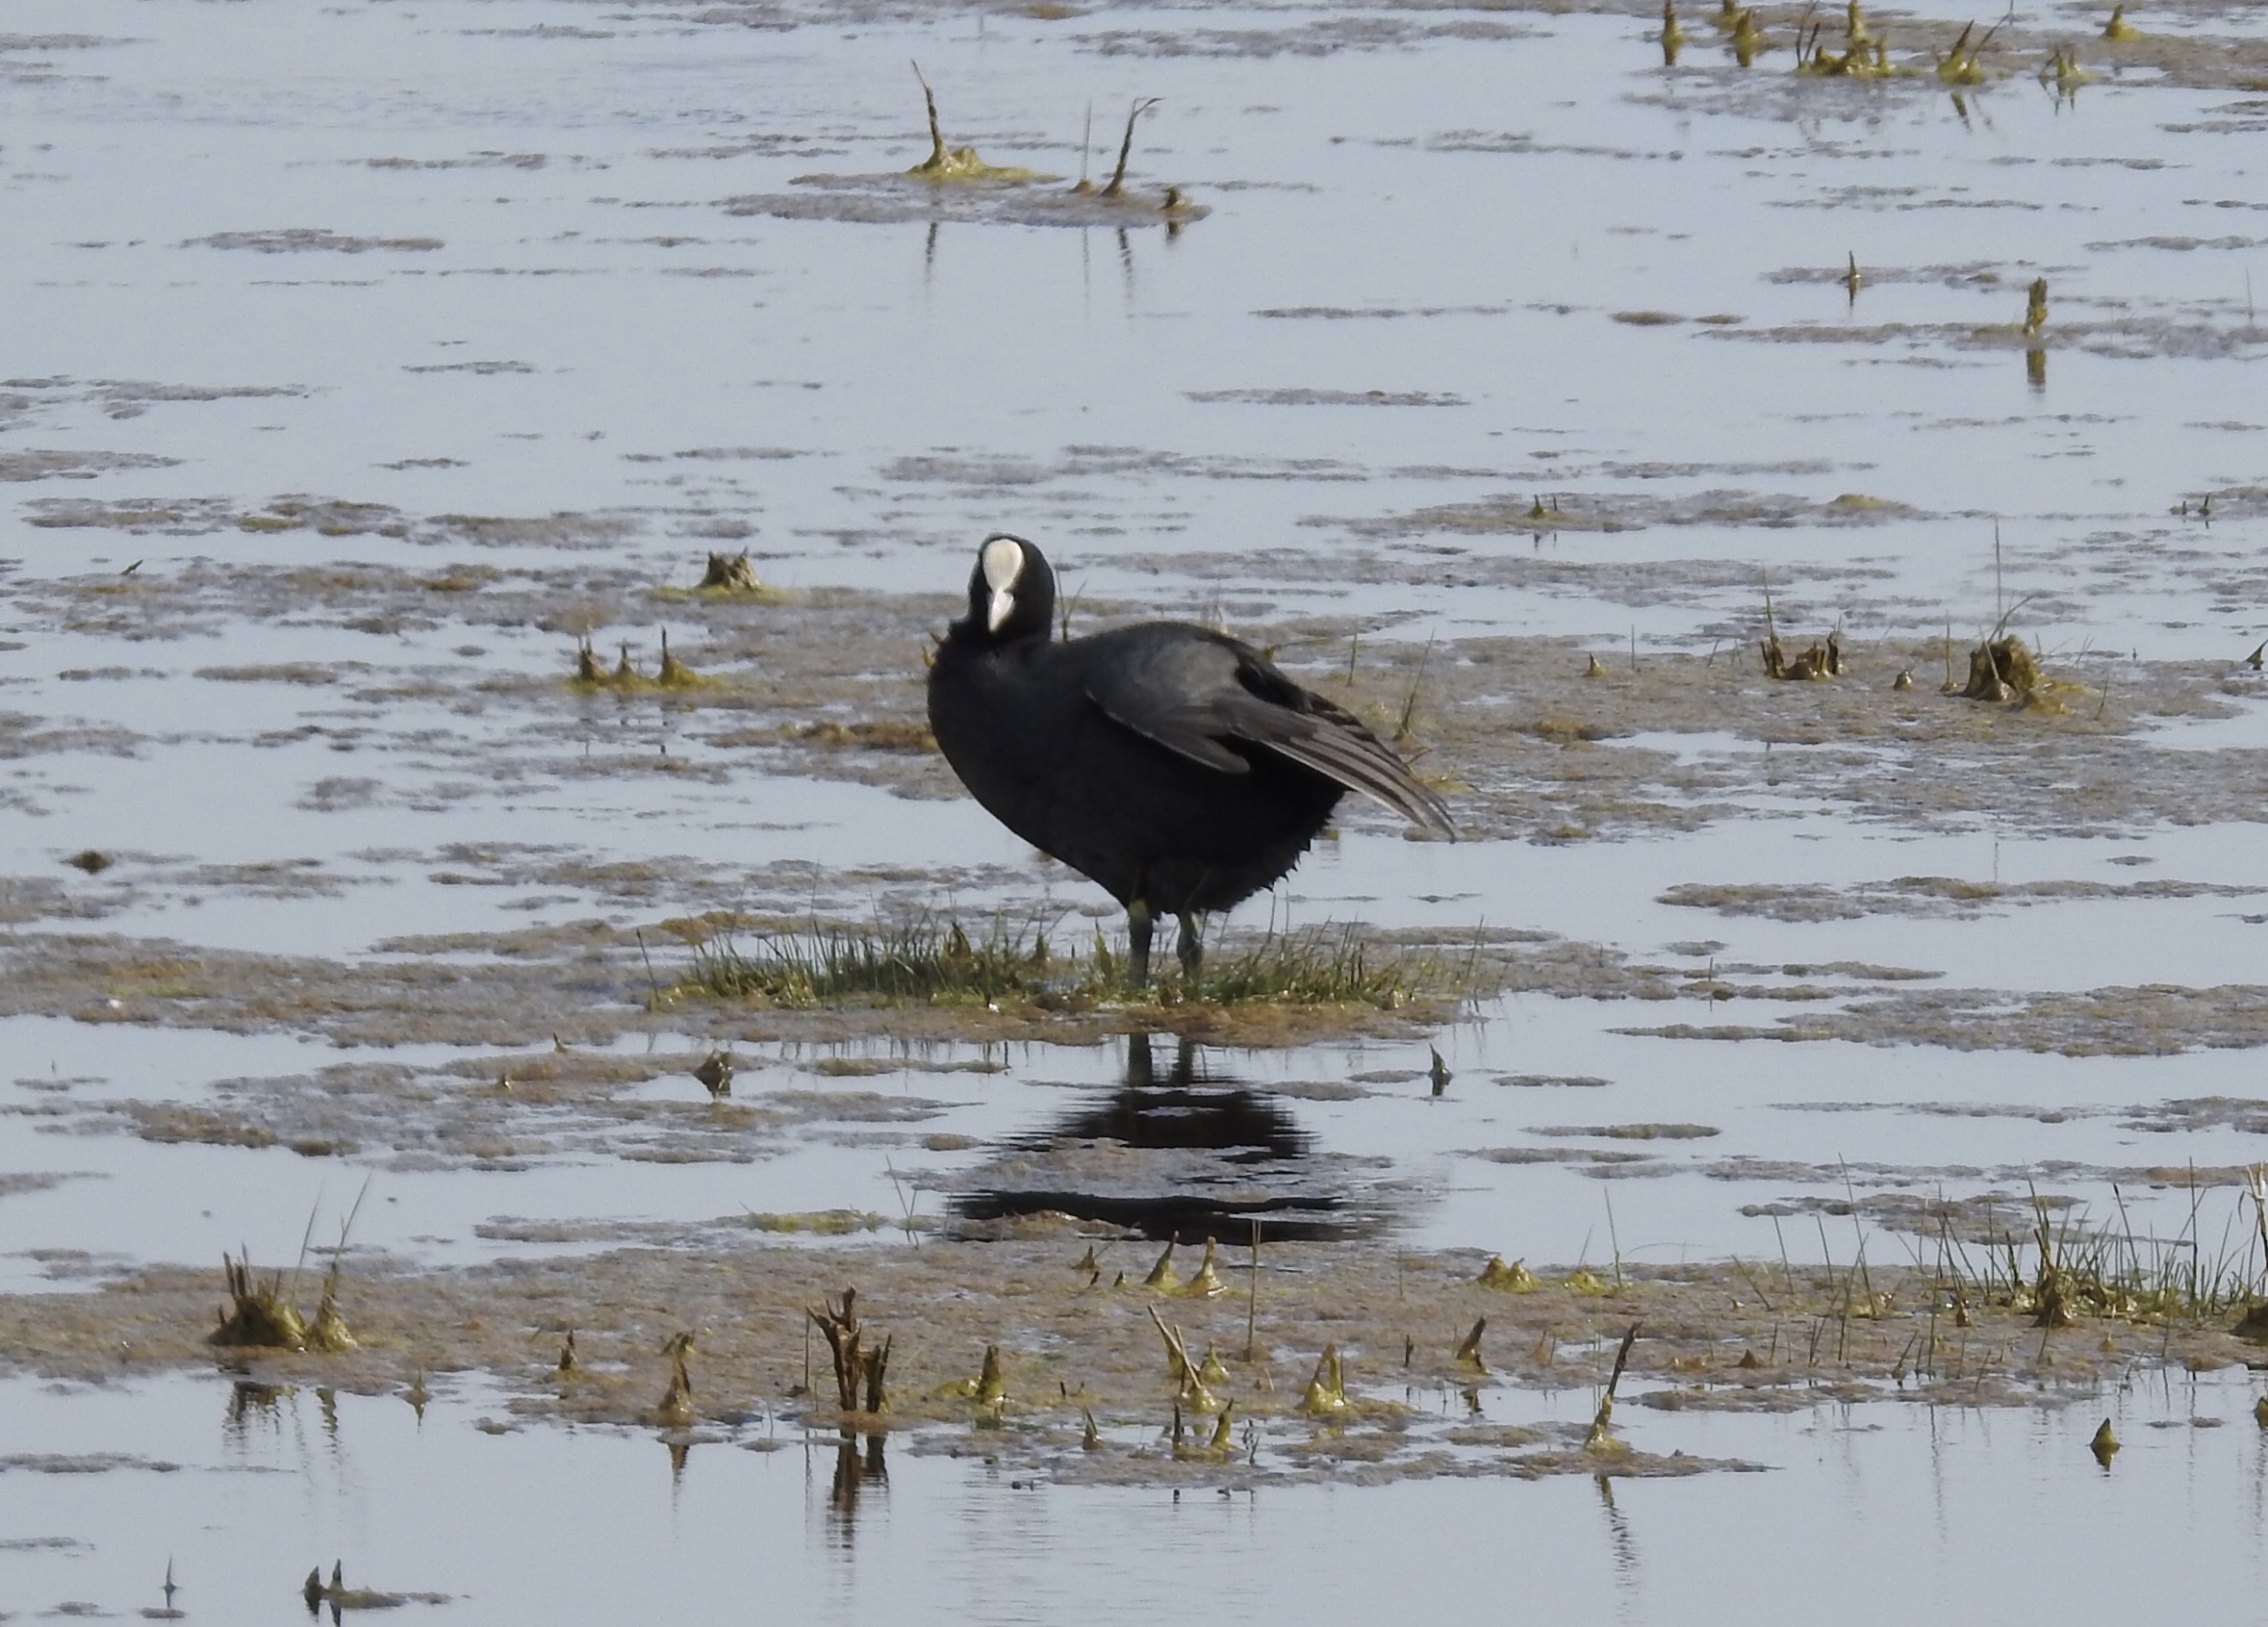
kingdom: Animalia
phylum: Chordata
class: Aves
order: Gruiformes
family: Rallidae
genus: Fulica
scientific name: Fulica atra
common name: Blishøne
